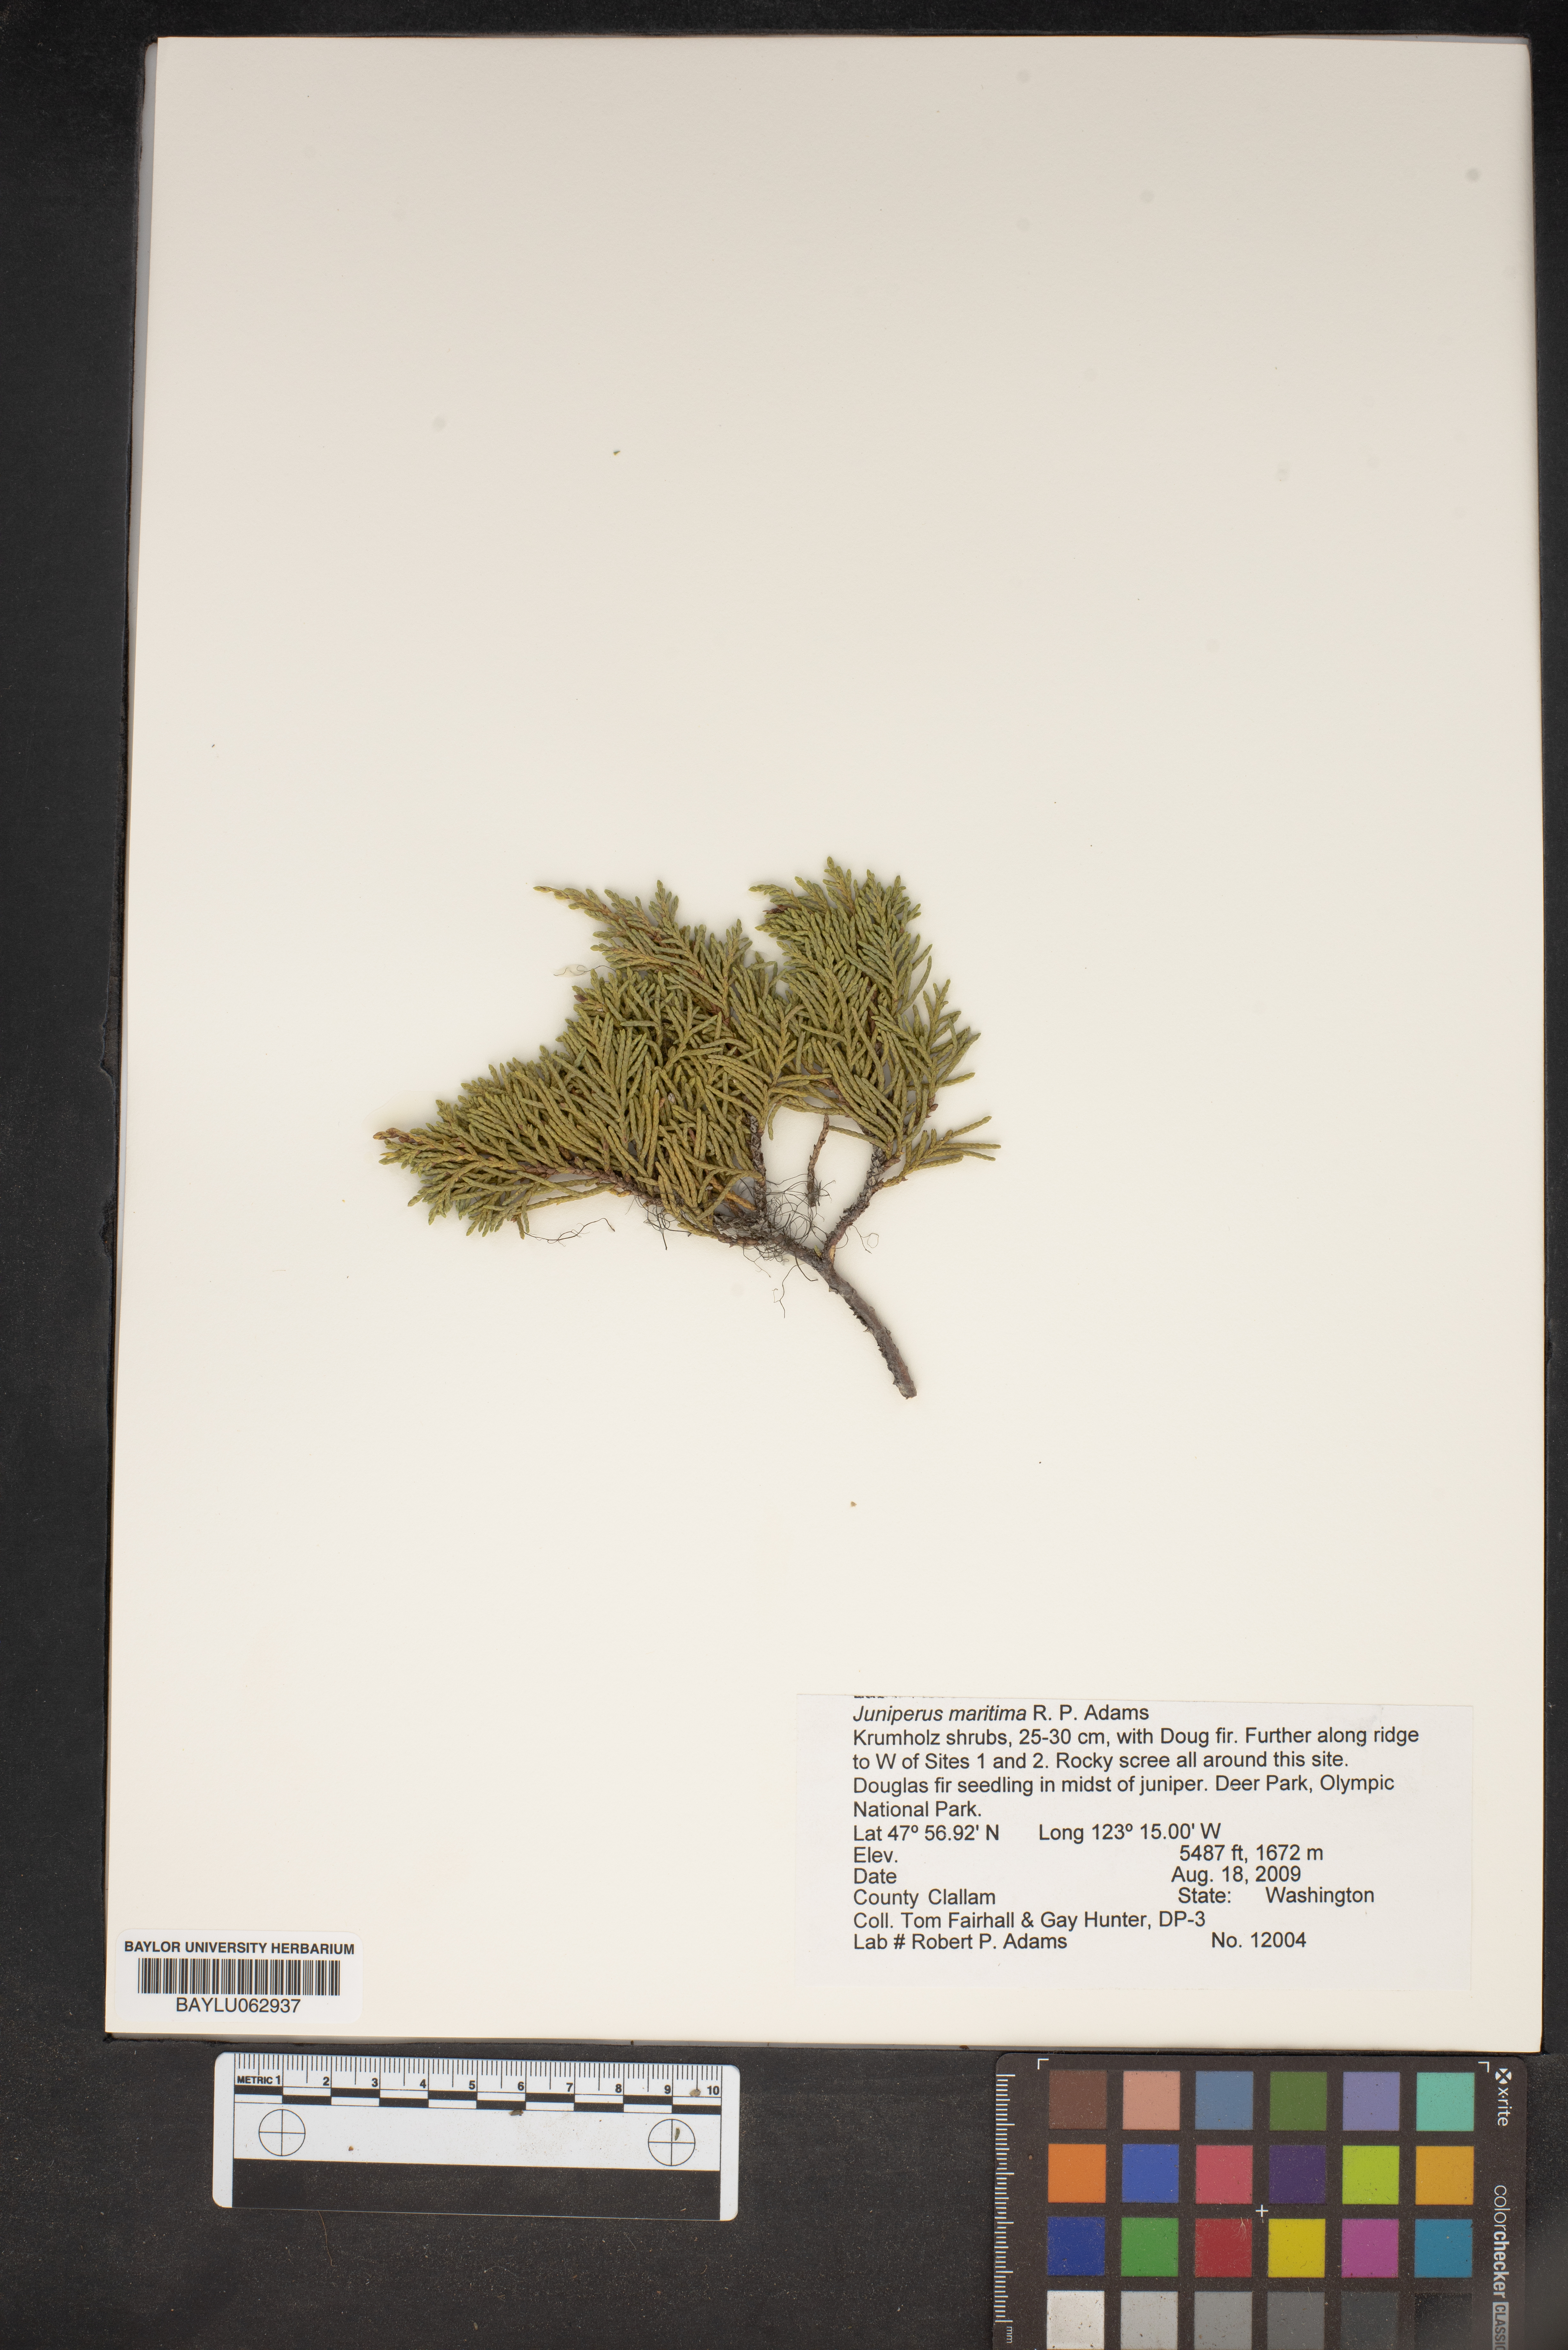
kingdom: Plantae
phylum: Tracheophyta
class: Pinopsida
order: Pinales
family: Cupressaceae
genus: Juniperus
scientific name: Juniperus scopulorum
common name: Rocky mountain juniper
